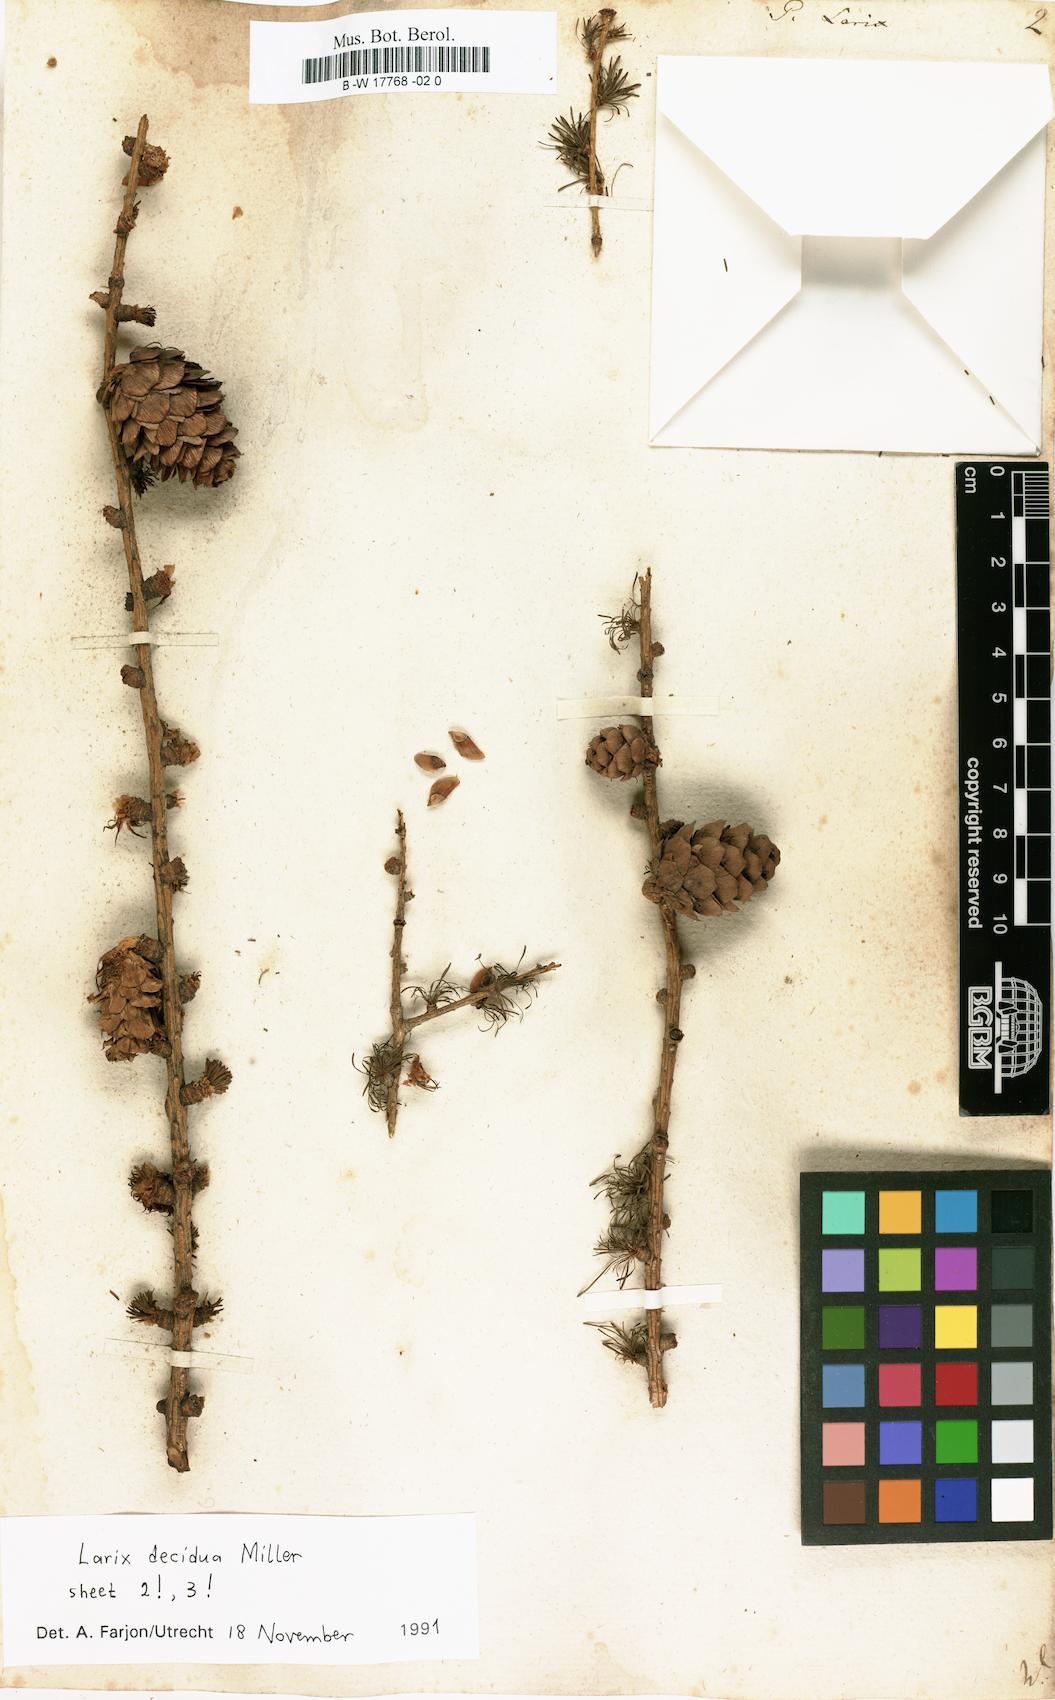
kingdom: Plantae
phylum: Tracheophyta
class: Pinopsida
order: Pinales
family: Pinaceae
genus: Larix
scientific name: Larix decidua
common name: European larch
